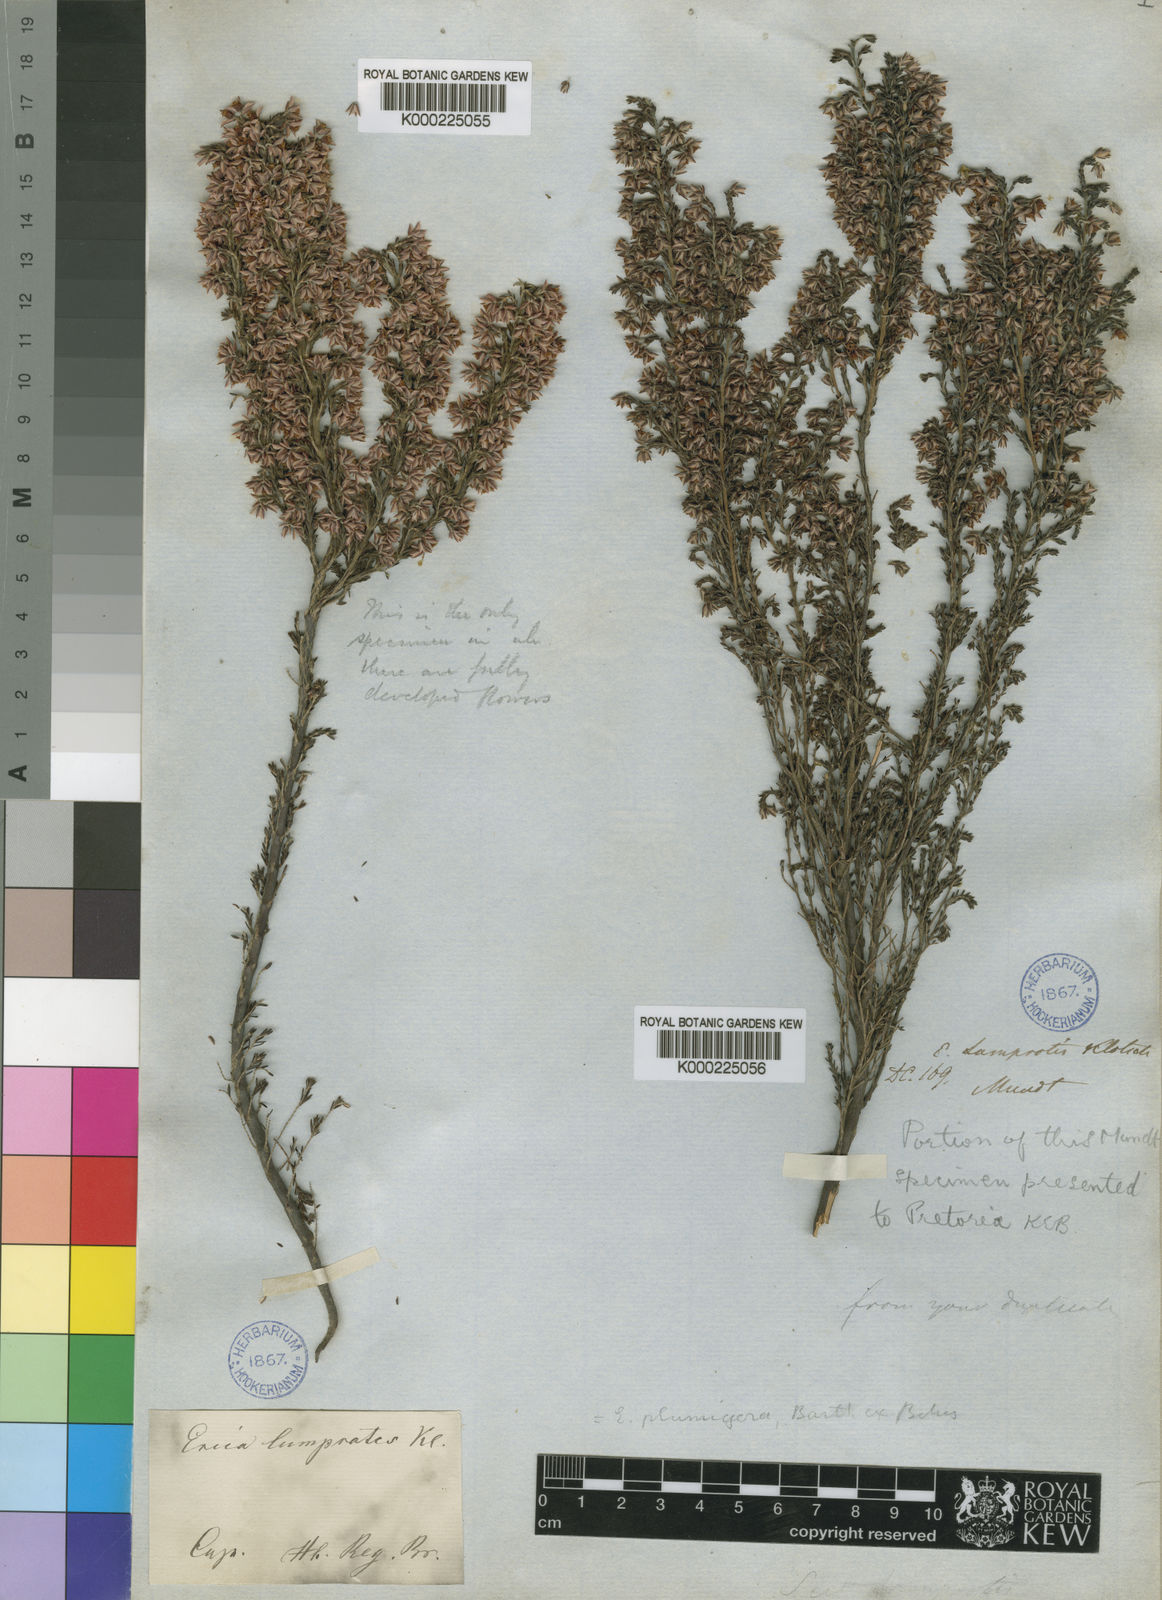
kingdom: Plantae
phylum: Tracheophyta
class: Magnoliopsida
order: Ericales
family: Ericaceae
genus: Erica
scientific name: Erica plumigera
